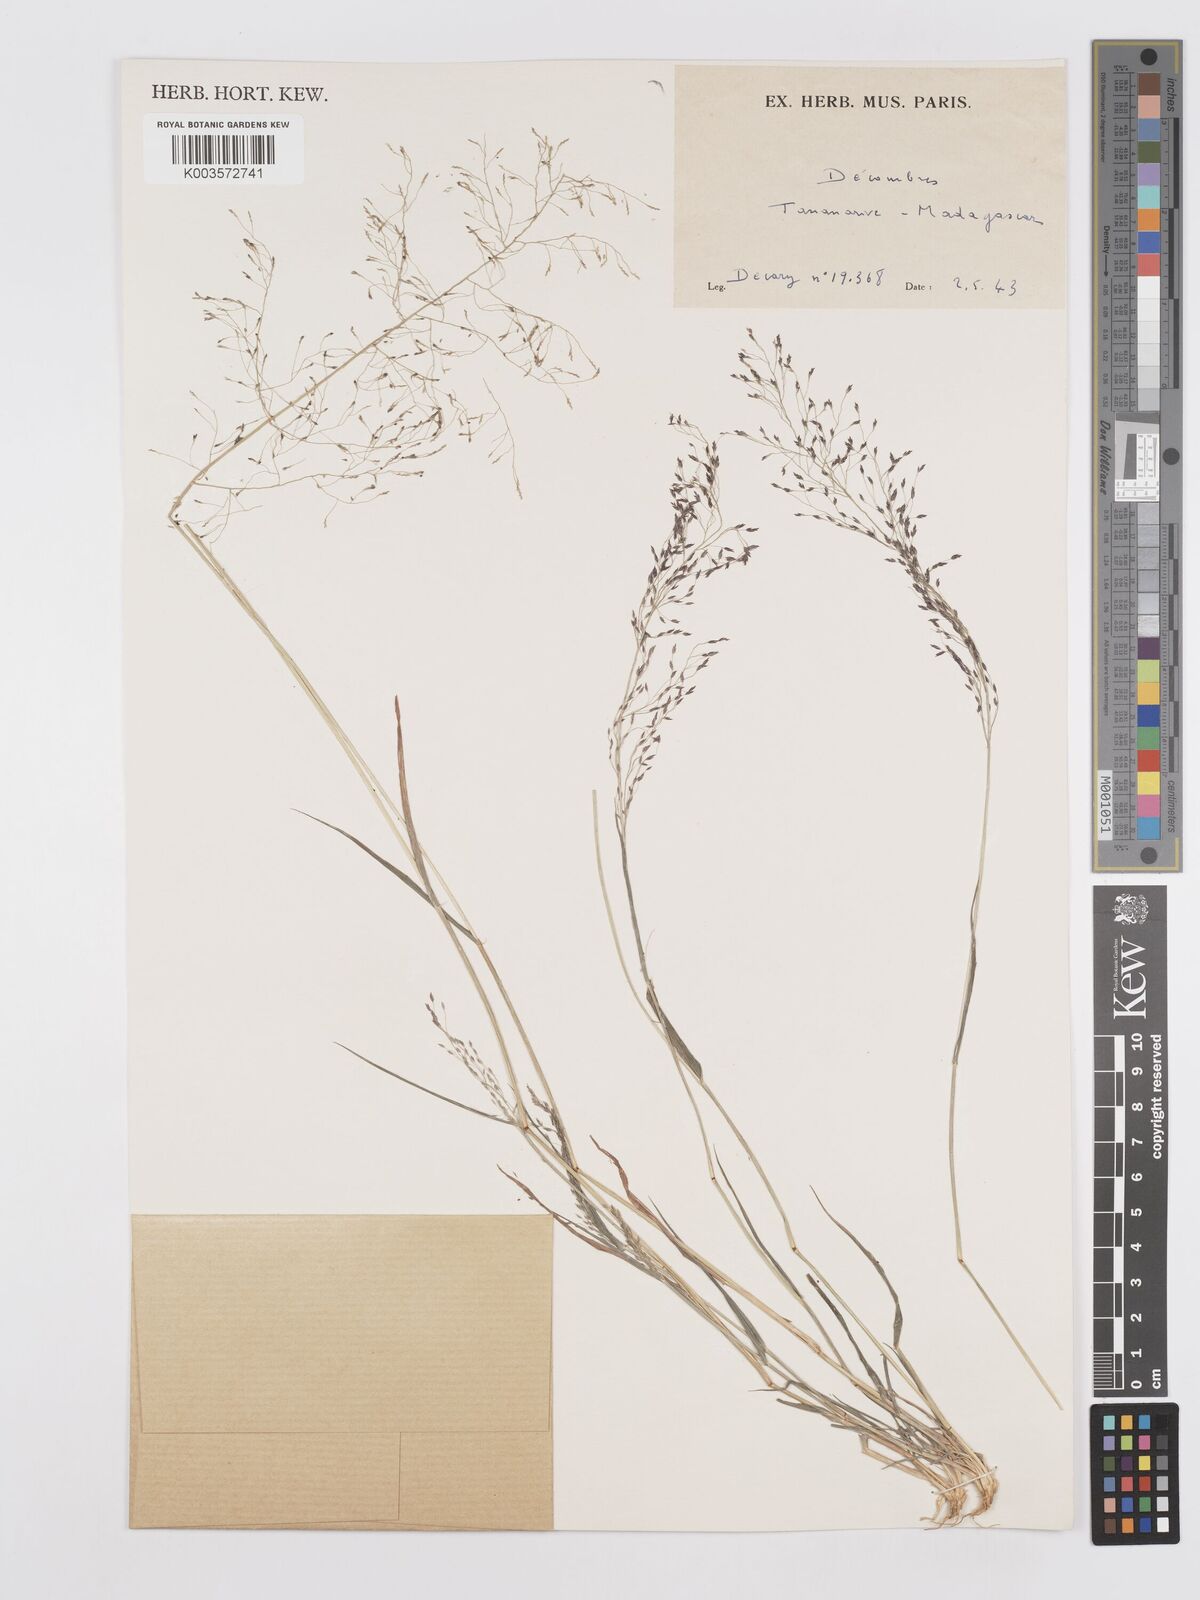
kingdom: Plantae
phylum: Tracheophyta
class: Liliopsida
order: Poales
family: Poaceae
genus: Eragrostis
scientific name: Eragrostis
